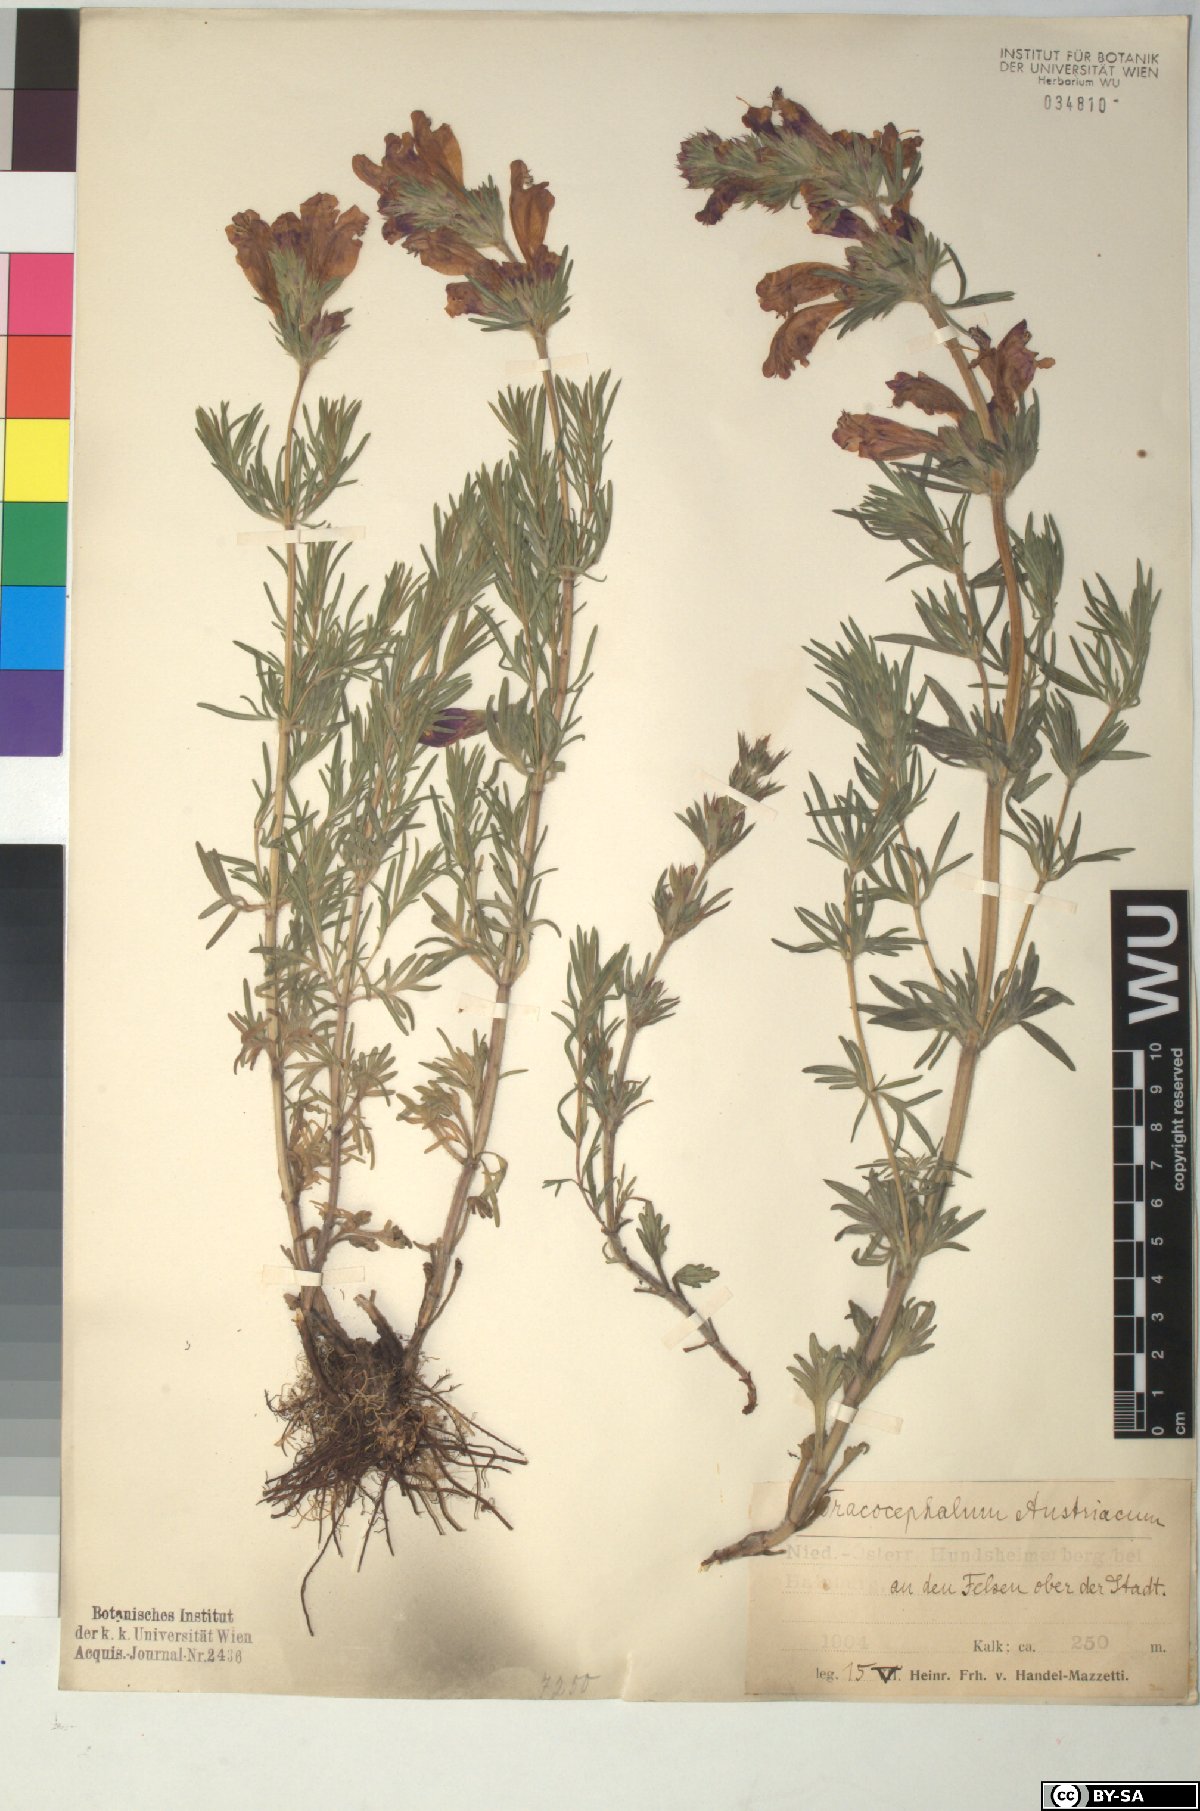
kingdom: Plantae
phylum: Tracheophyta
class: Magnoliopsida
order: Lamiales
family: Lamiaceae
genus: Dracocephalum
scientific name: Dracocephalum austriacum
